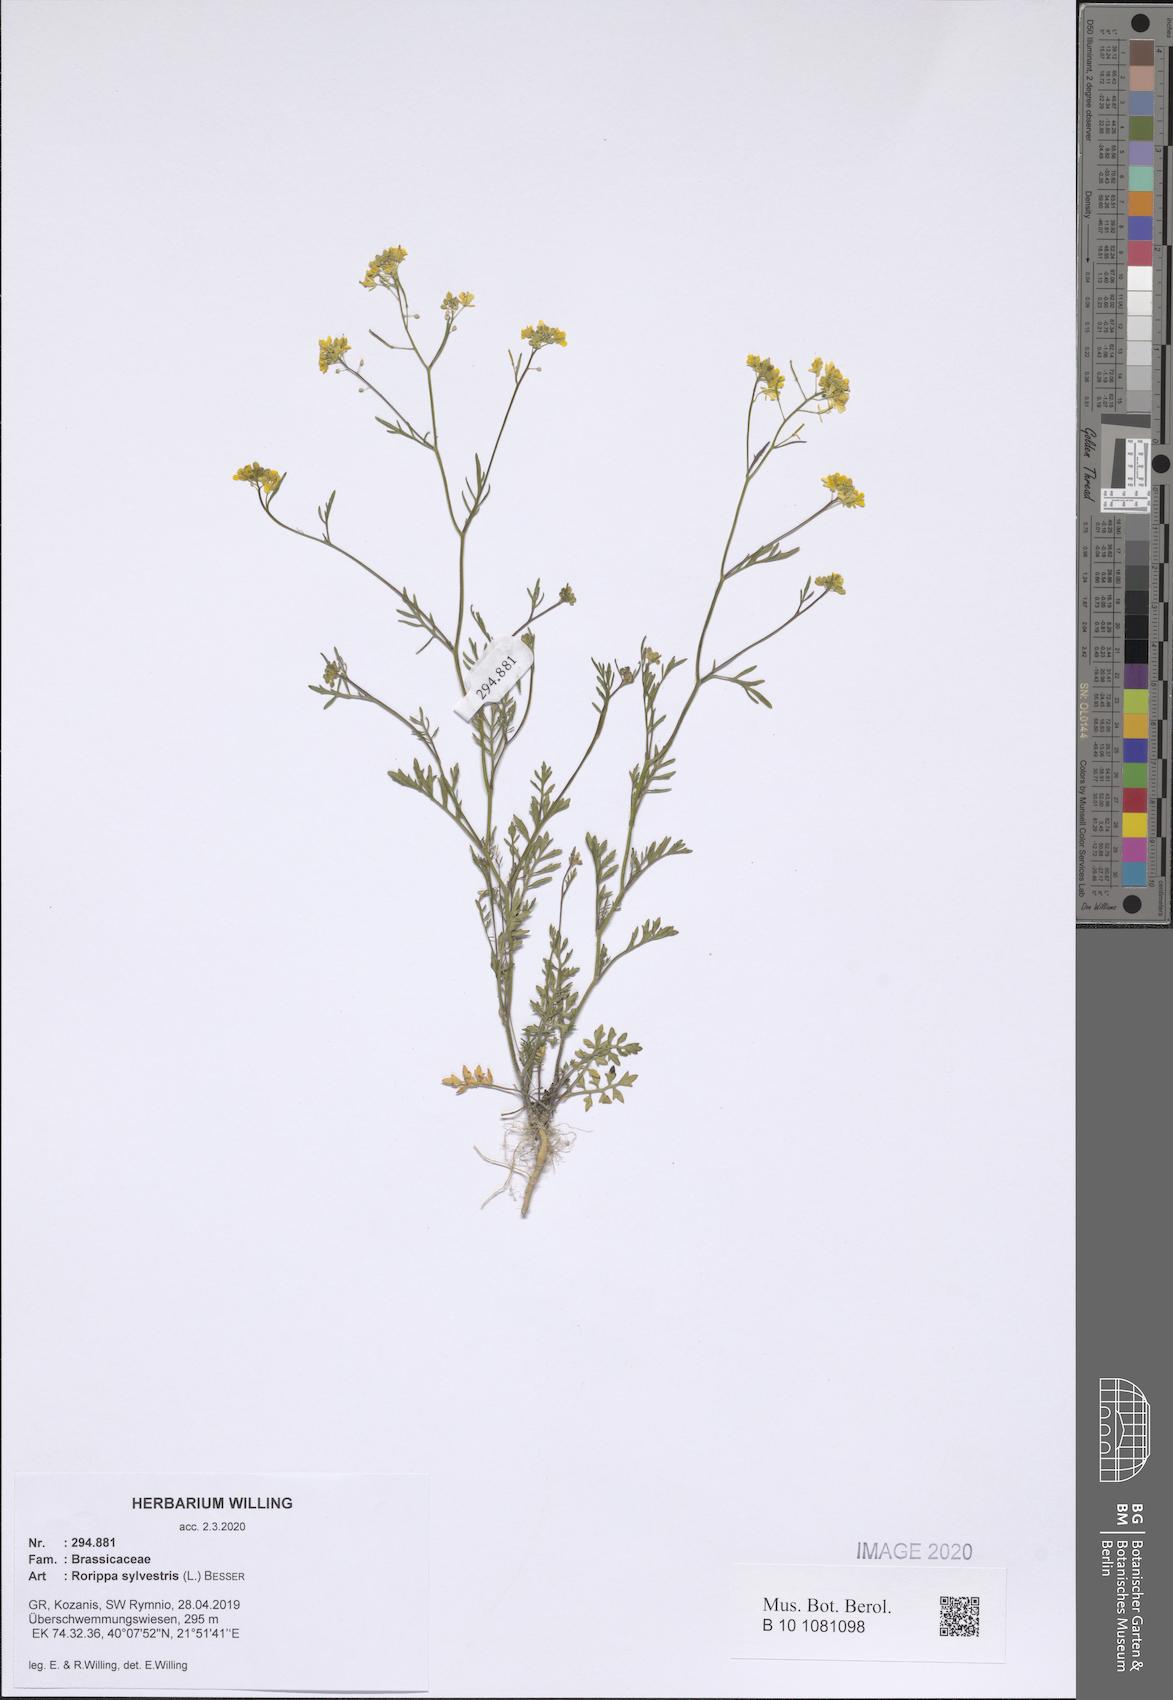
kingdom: Plantae
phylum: Tracheophyta
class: Magnoliopsida
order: Brassicales
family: Brassicaceae
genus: Rorippa
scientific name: Rorippa sylvestris
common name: Creeping yellowcress
